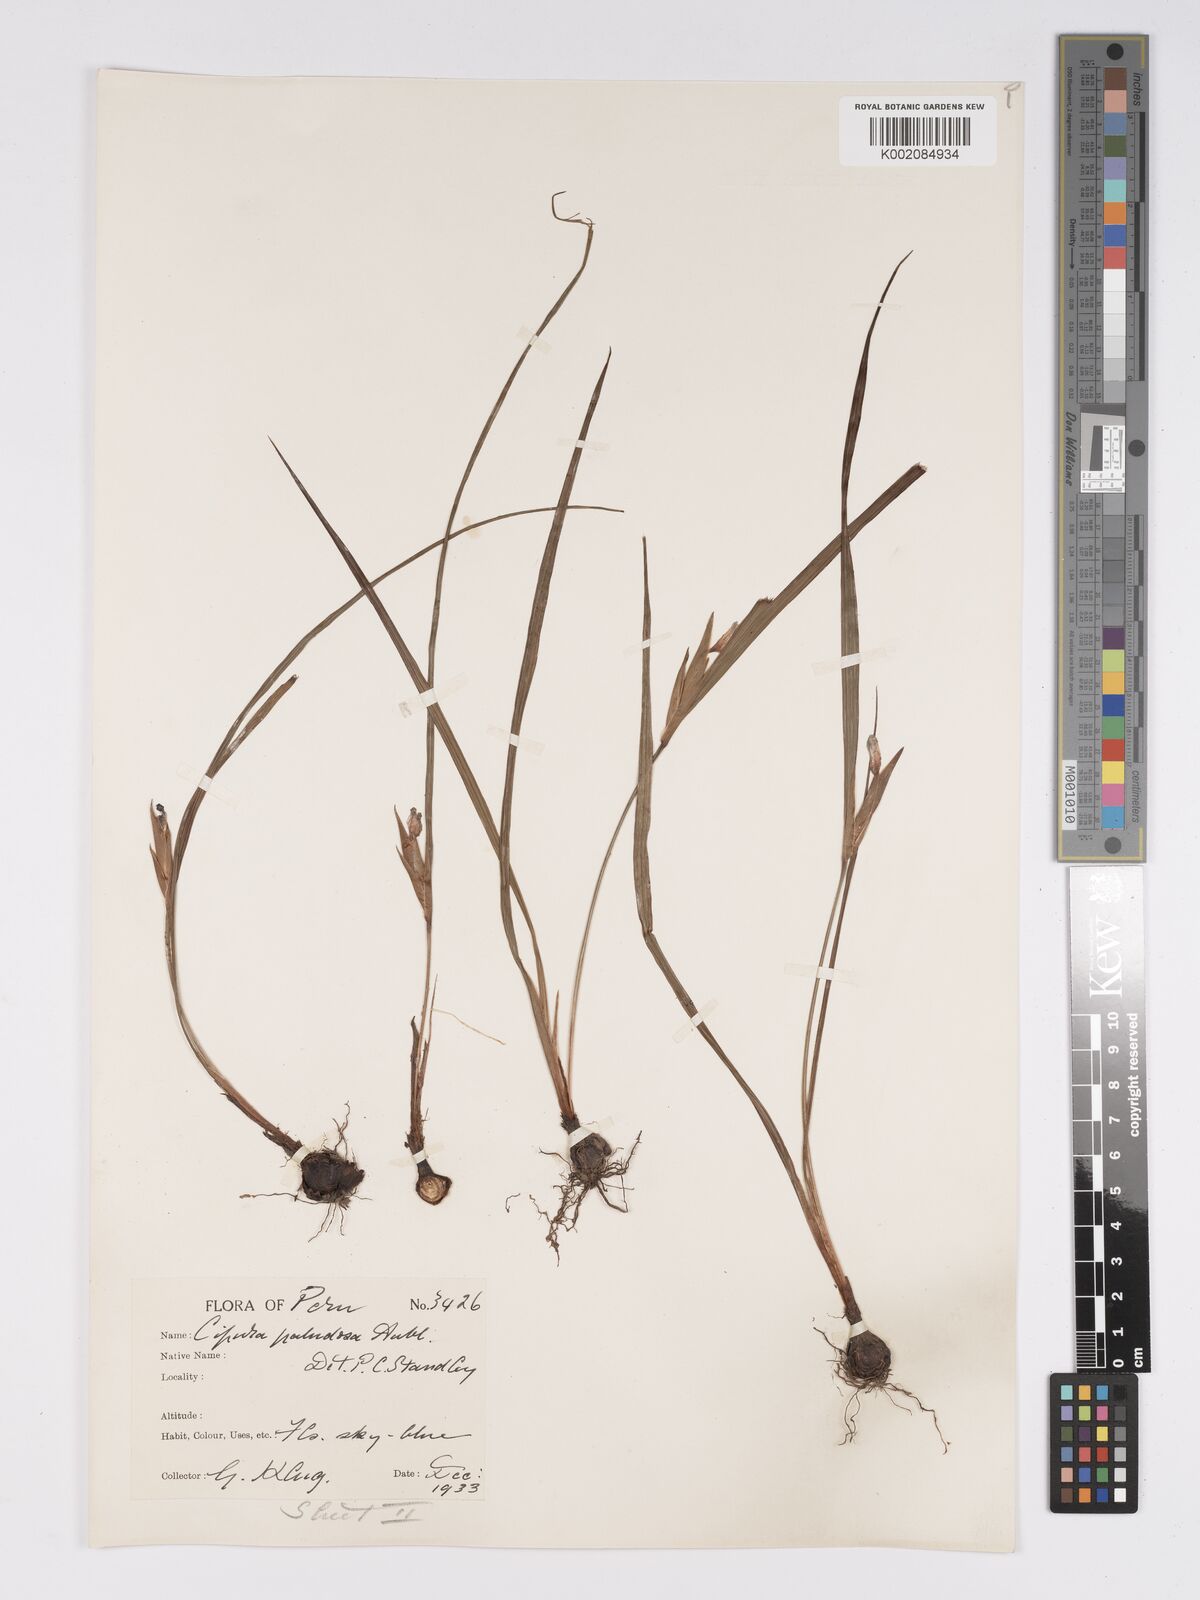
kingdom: Plantae
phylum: Tracheophyta
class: Liliopsida
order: Asparagales
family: Iridaceae
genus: Cipura
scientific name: Cipura paludosa
